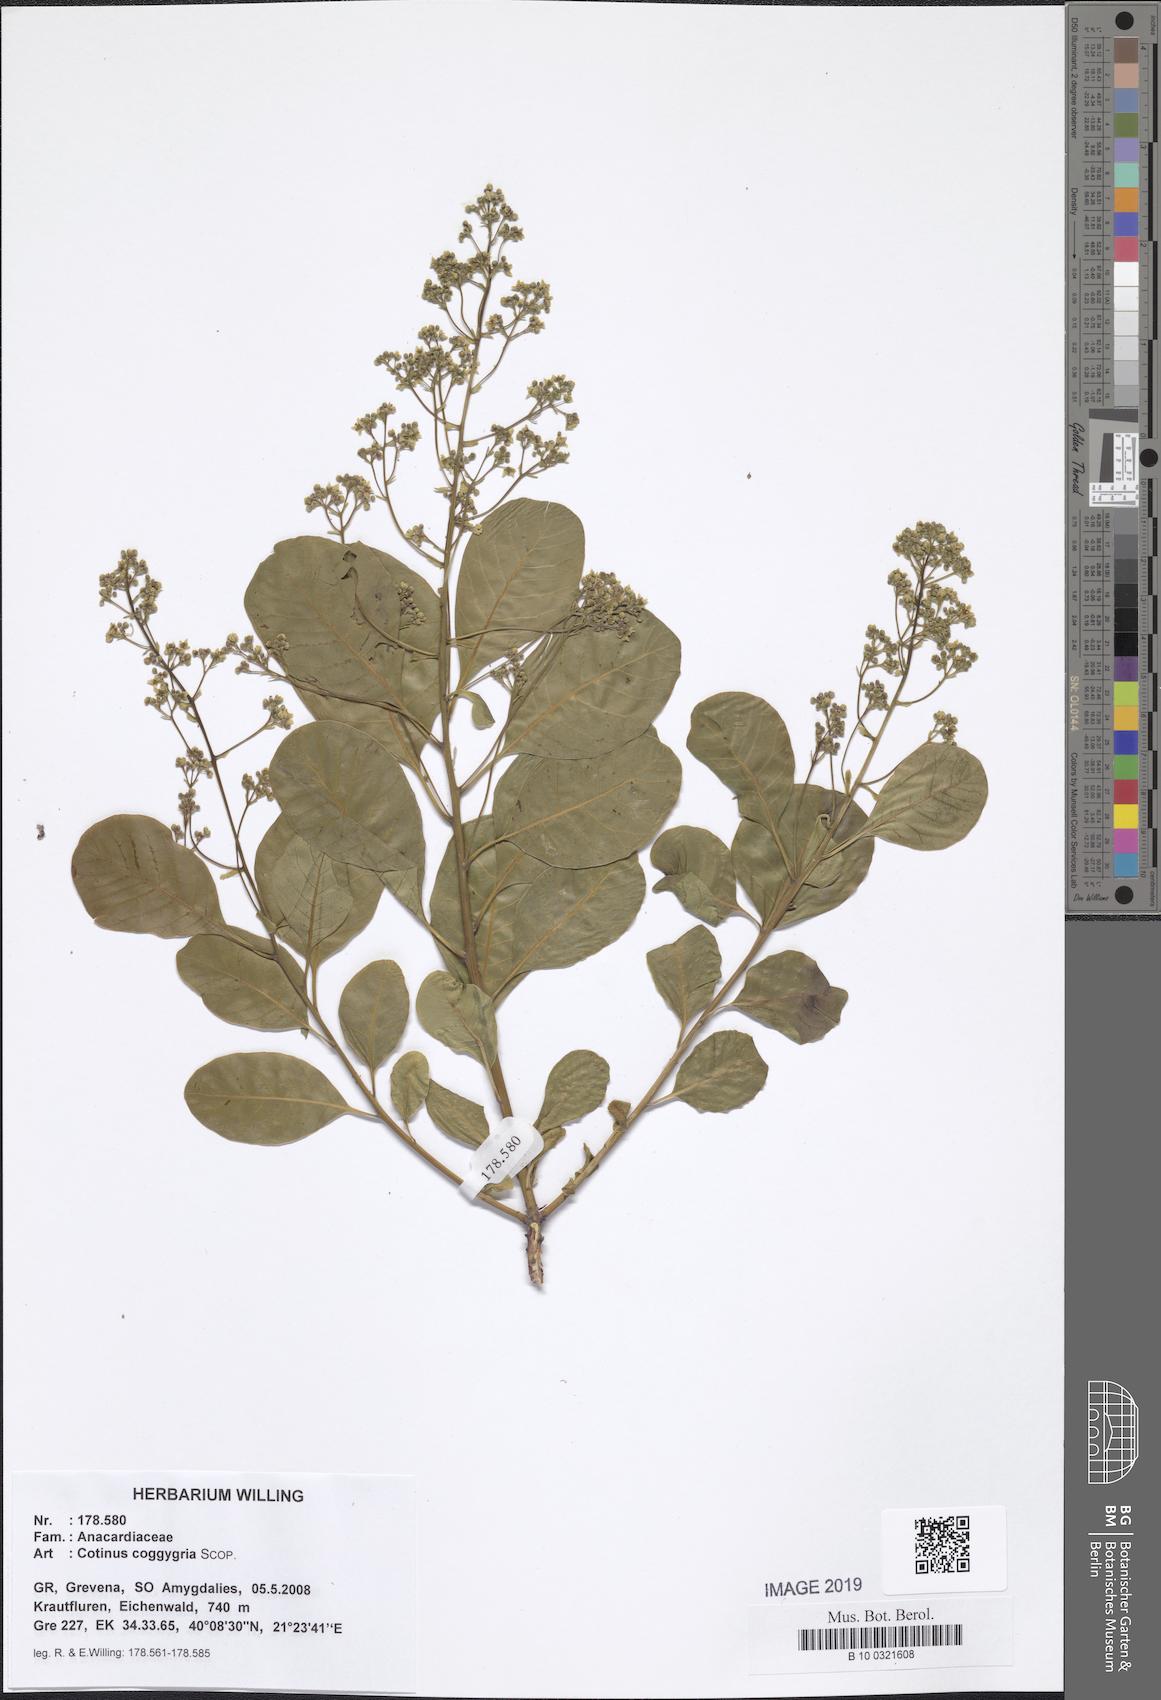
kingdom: Plantae
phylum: Tracheophyta
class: Magnoliopsida
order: Sapindales
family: Anacardiaceae
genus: Cotinus
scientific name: Cotinus coggygria
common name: Smoke-tree
